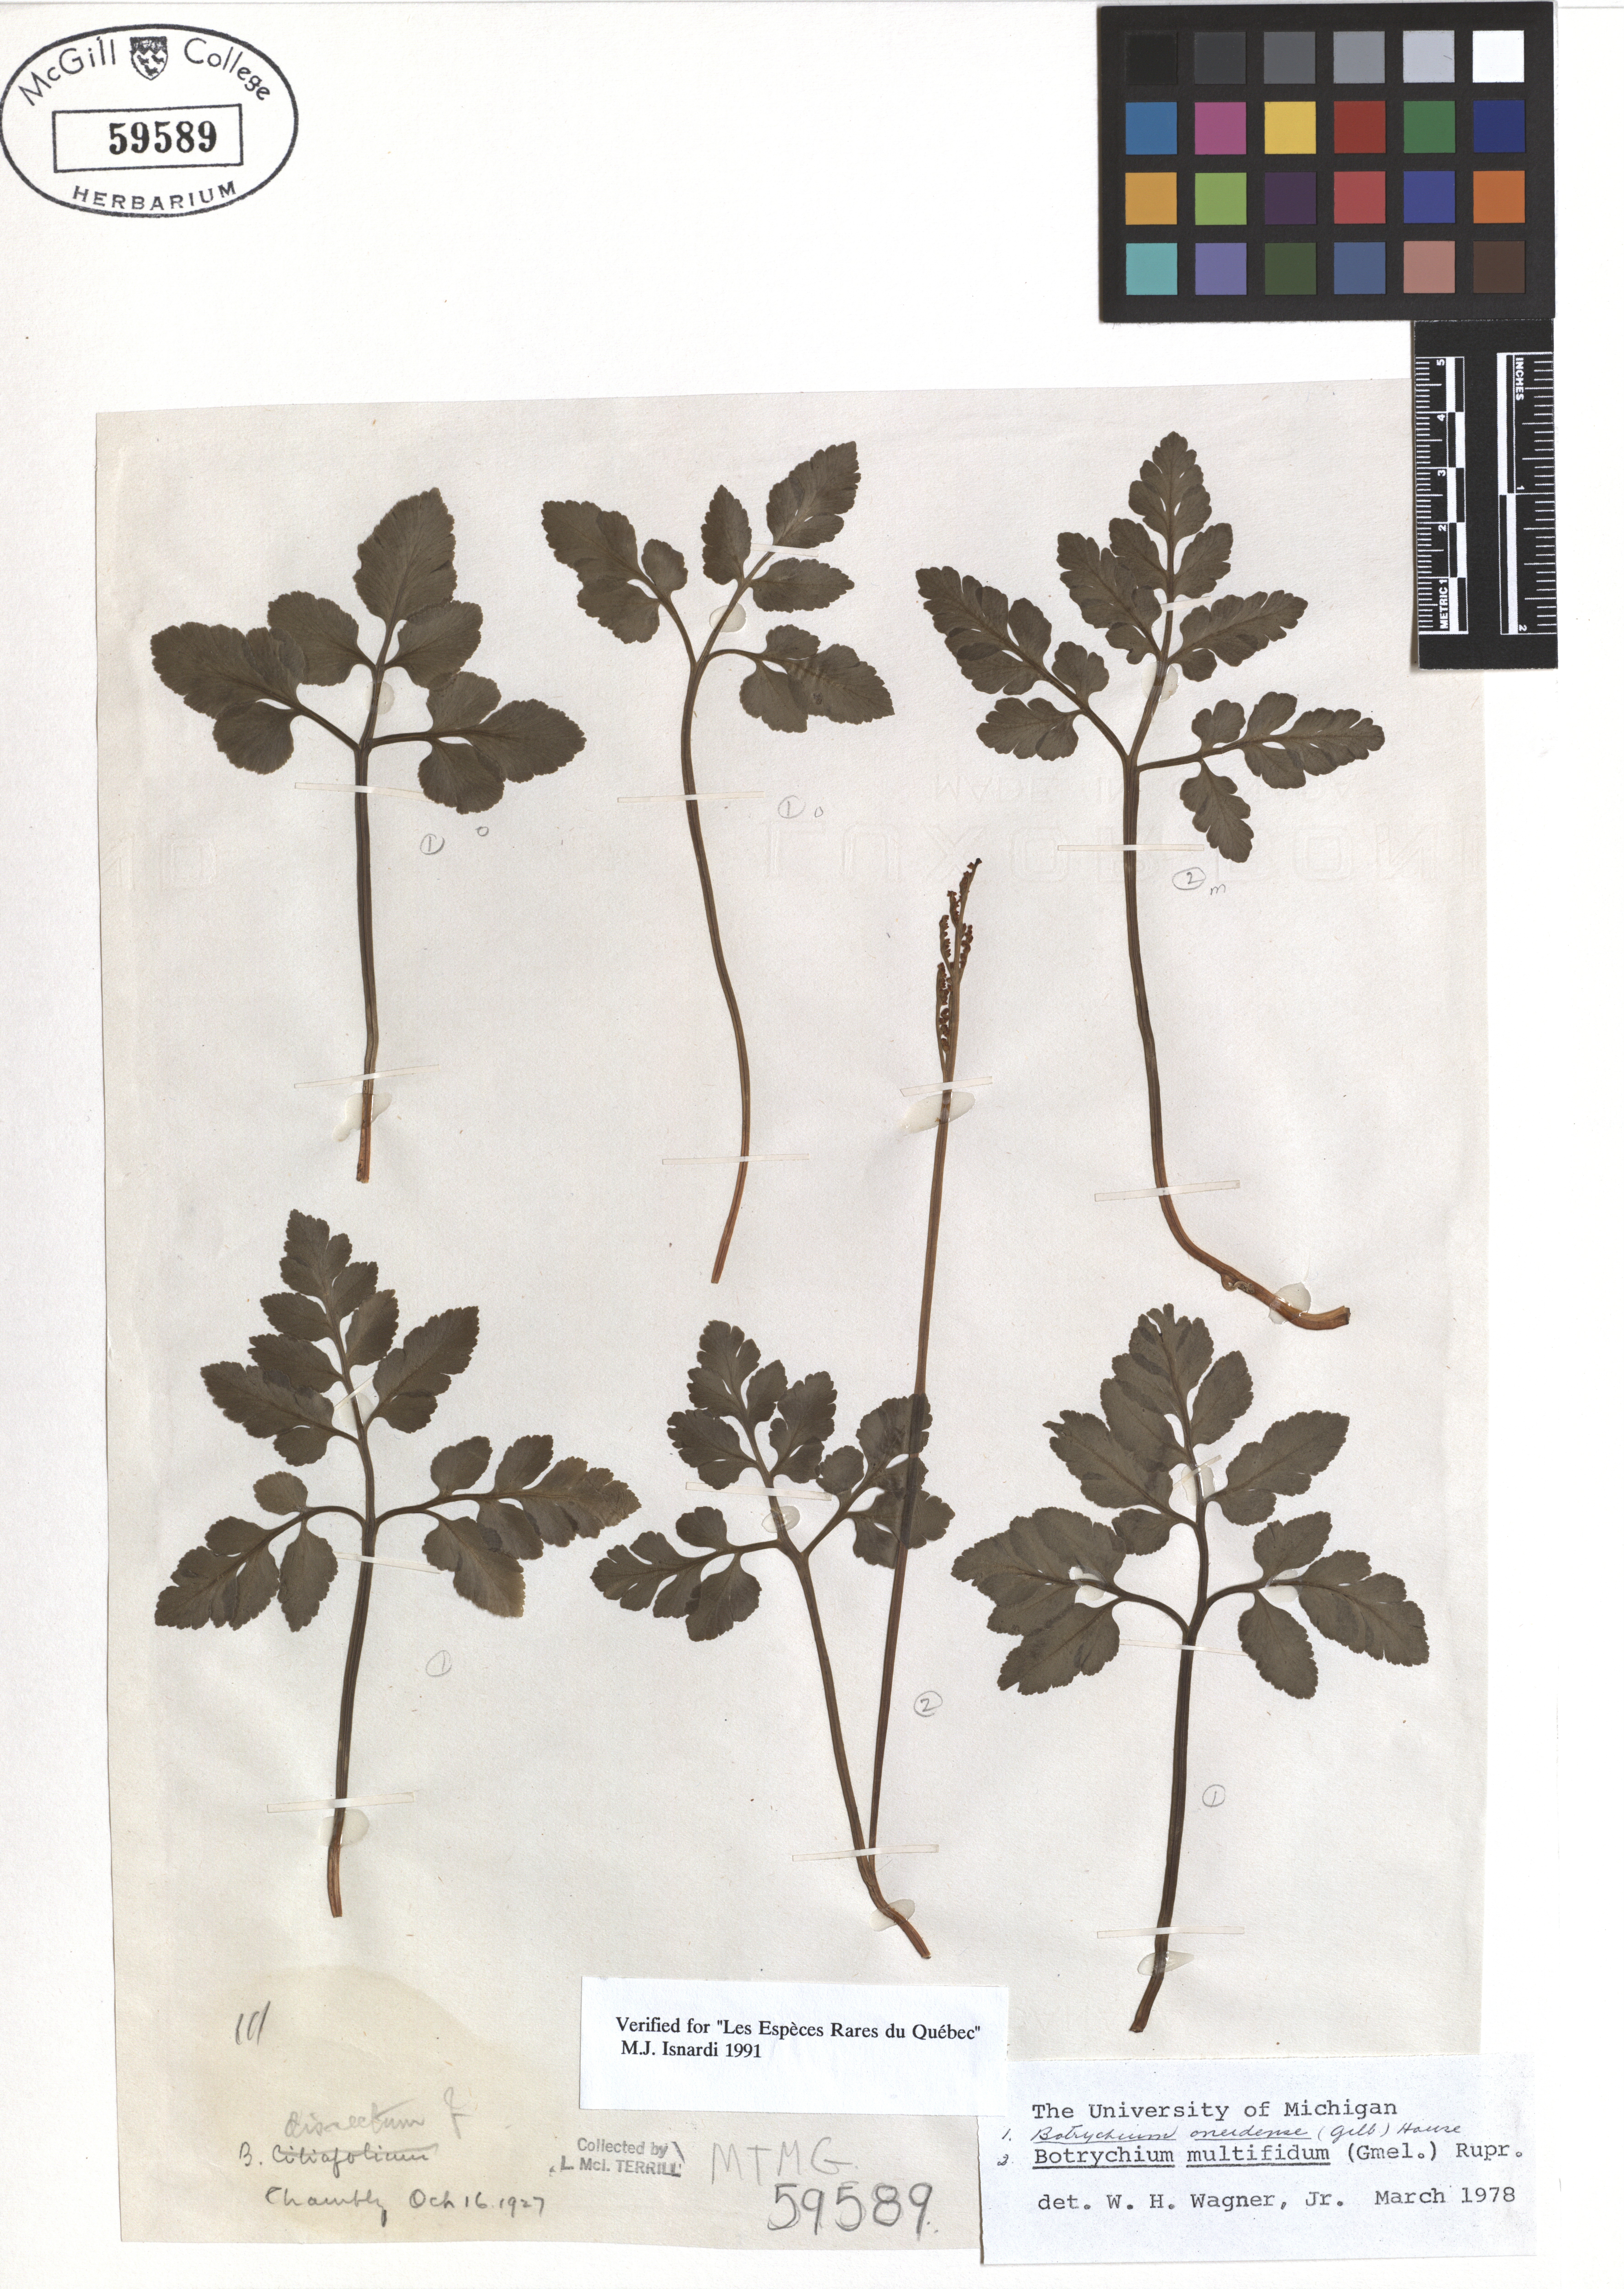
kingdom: Plantae
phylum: Tracheophyta
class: Polypodiopsida
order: Ophioglossales
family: Ophioglossaceae
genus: Sceptridium
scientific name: Sceptridium oneidense
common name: Blunt-lobed grapefern
